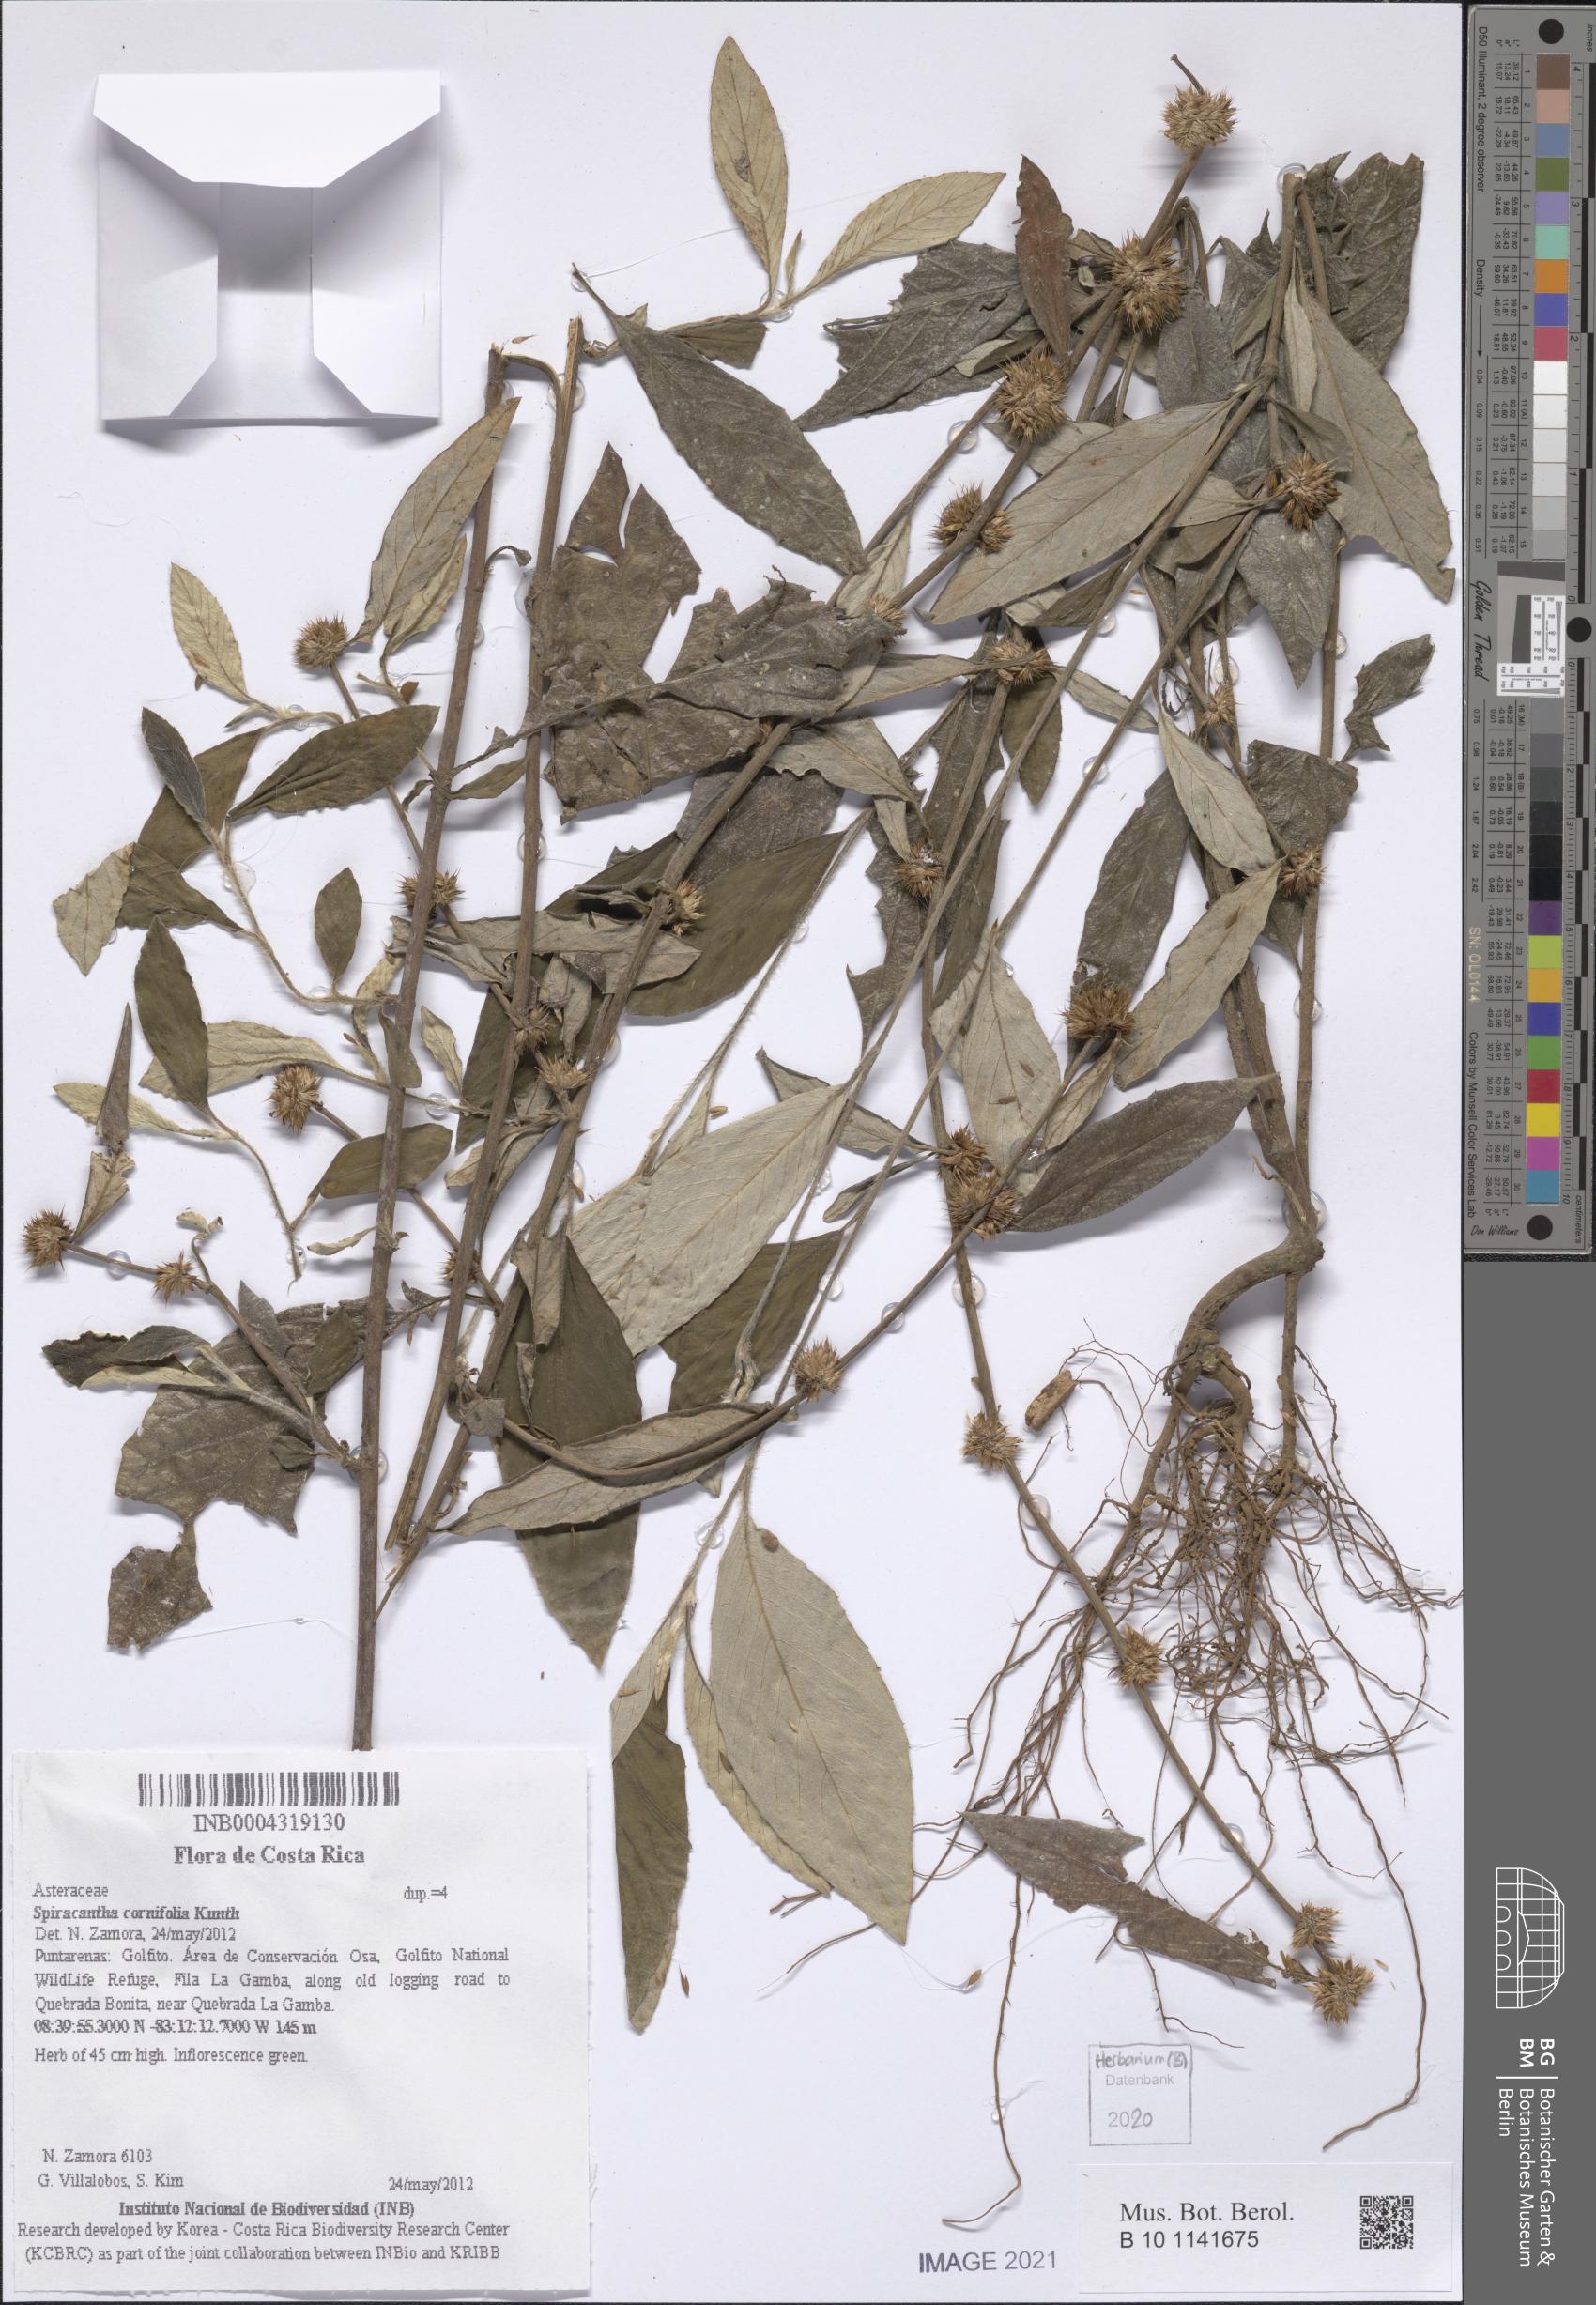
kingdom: Plantae
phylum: Tracheophyta
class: Magnoliopsida
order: Asterales
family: Asteraceae
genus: Spiracantha
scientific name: Spiracantha cornifolia
